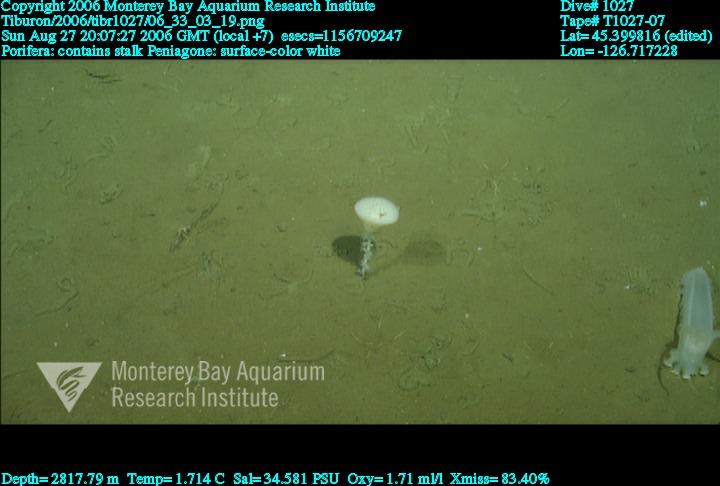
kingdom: Animalia
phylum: Porifera
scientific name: Porifera
